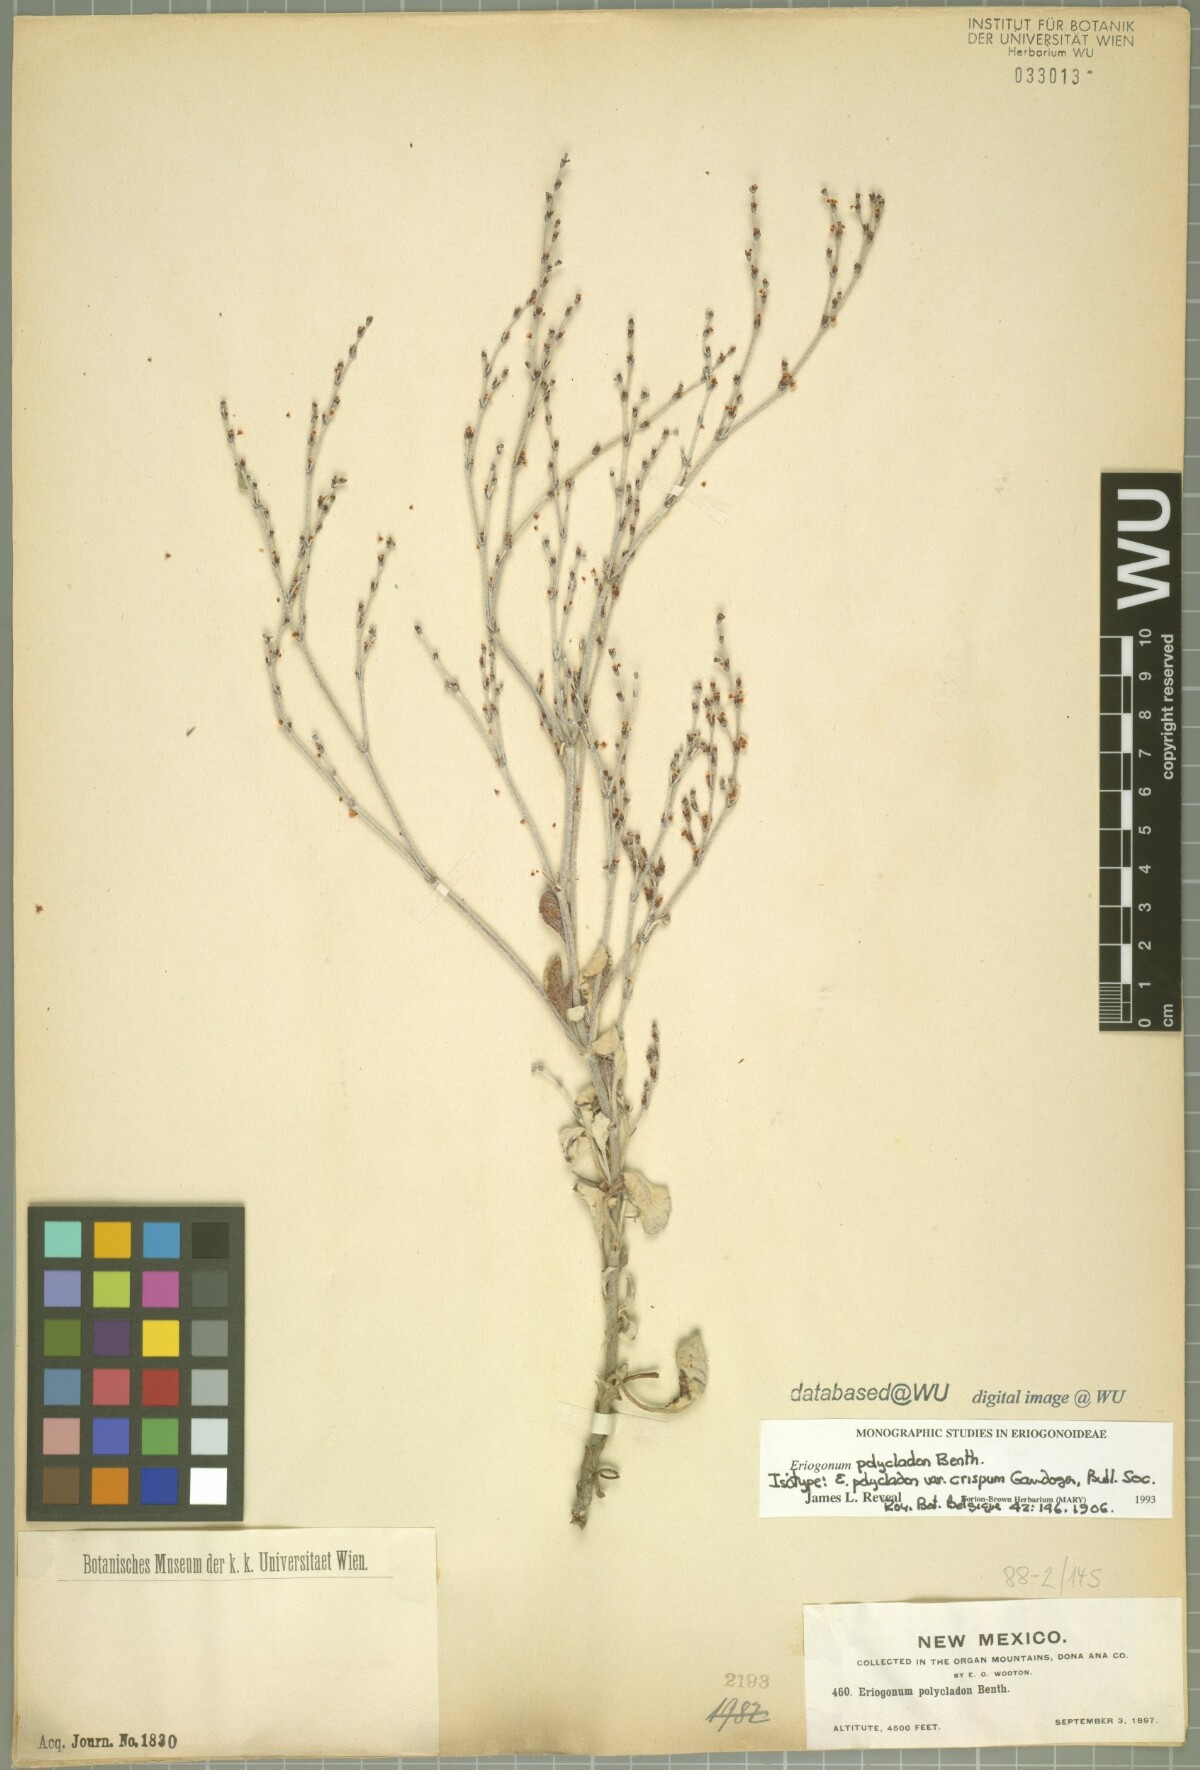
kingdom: Plantae
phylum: Tracheophyta
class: Magnoliopsida
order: Caryophyllales
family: Polygonaceae
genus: Eriogonum
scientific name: Eriogonum polycladon
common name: Sorrel wild buckwheat
